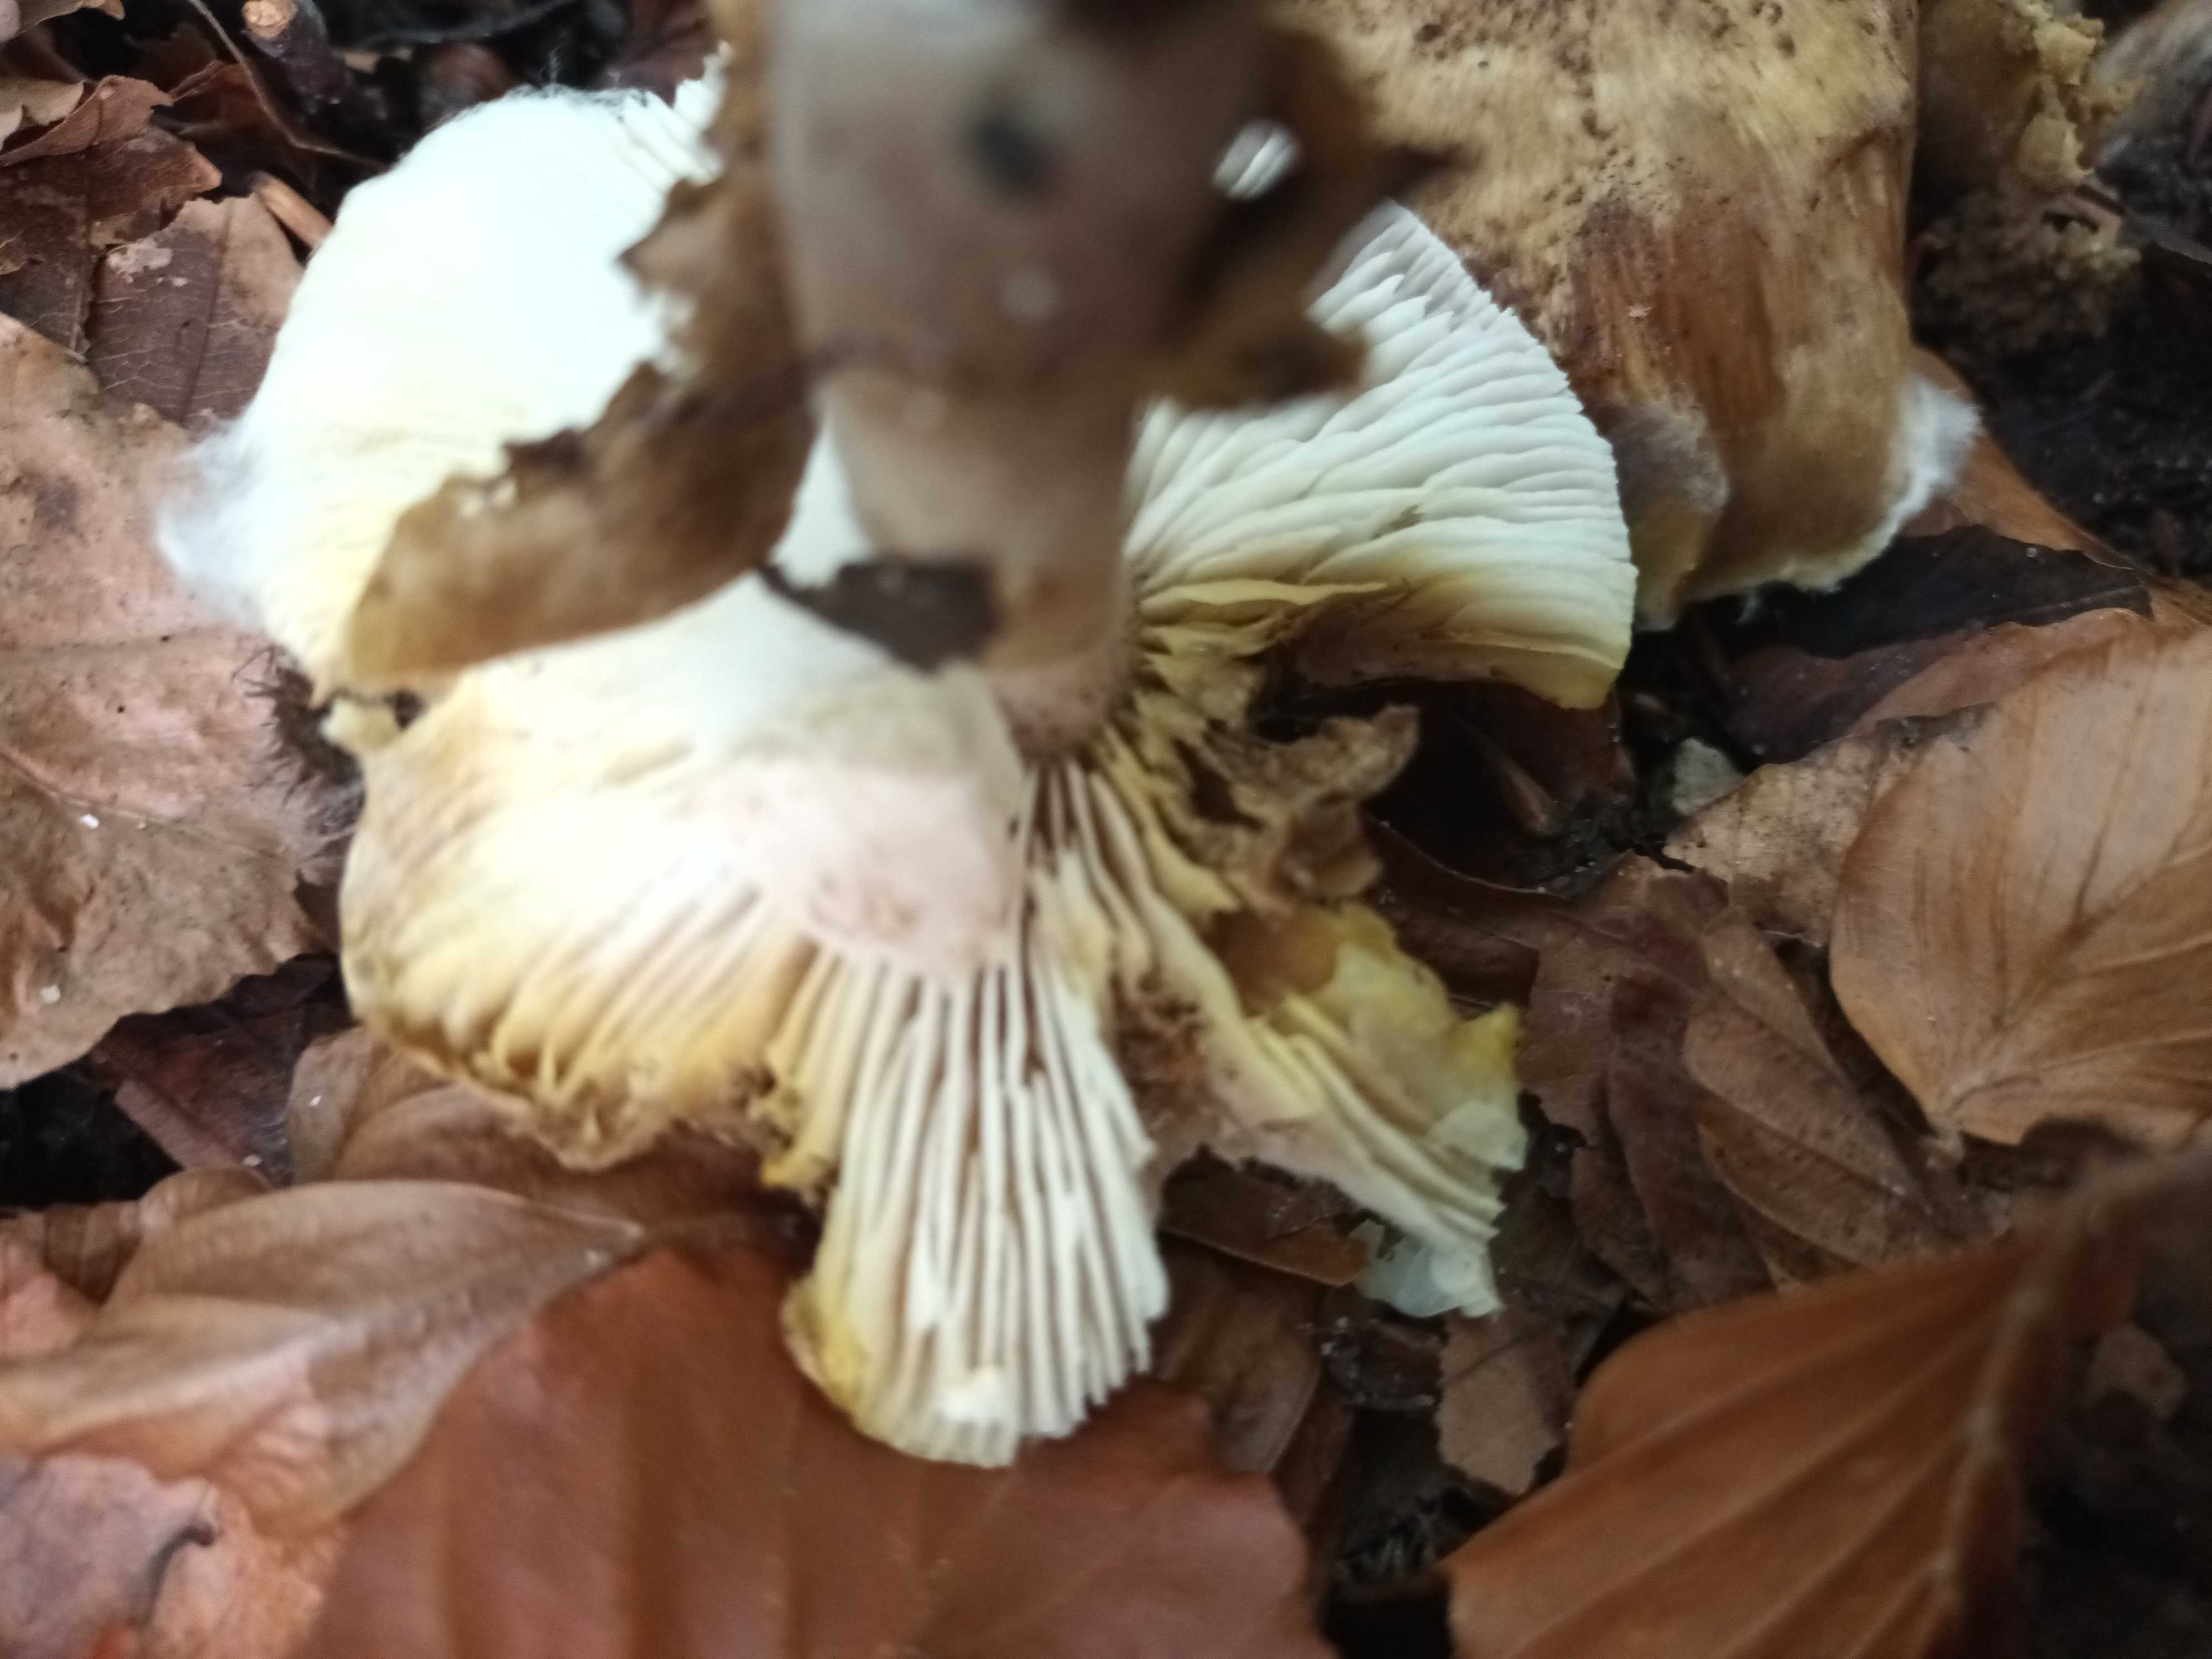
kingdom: Fungi
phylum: Basidiomycota
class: Agaricomycetes
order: Agaricales
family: Tricholomataceae
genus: Tricholoma
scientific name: Tricholoma scalpturatum
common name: gulplettet ridderhat
